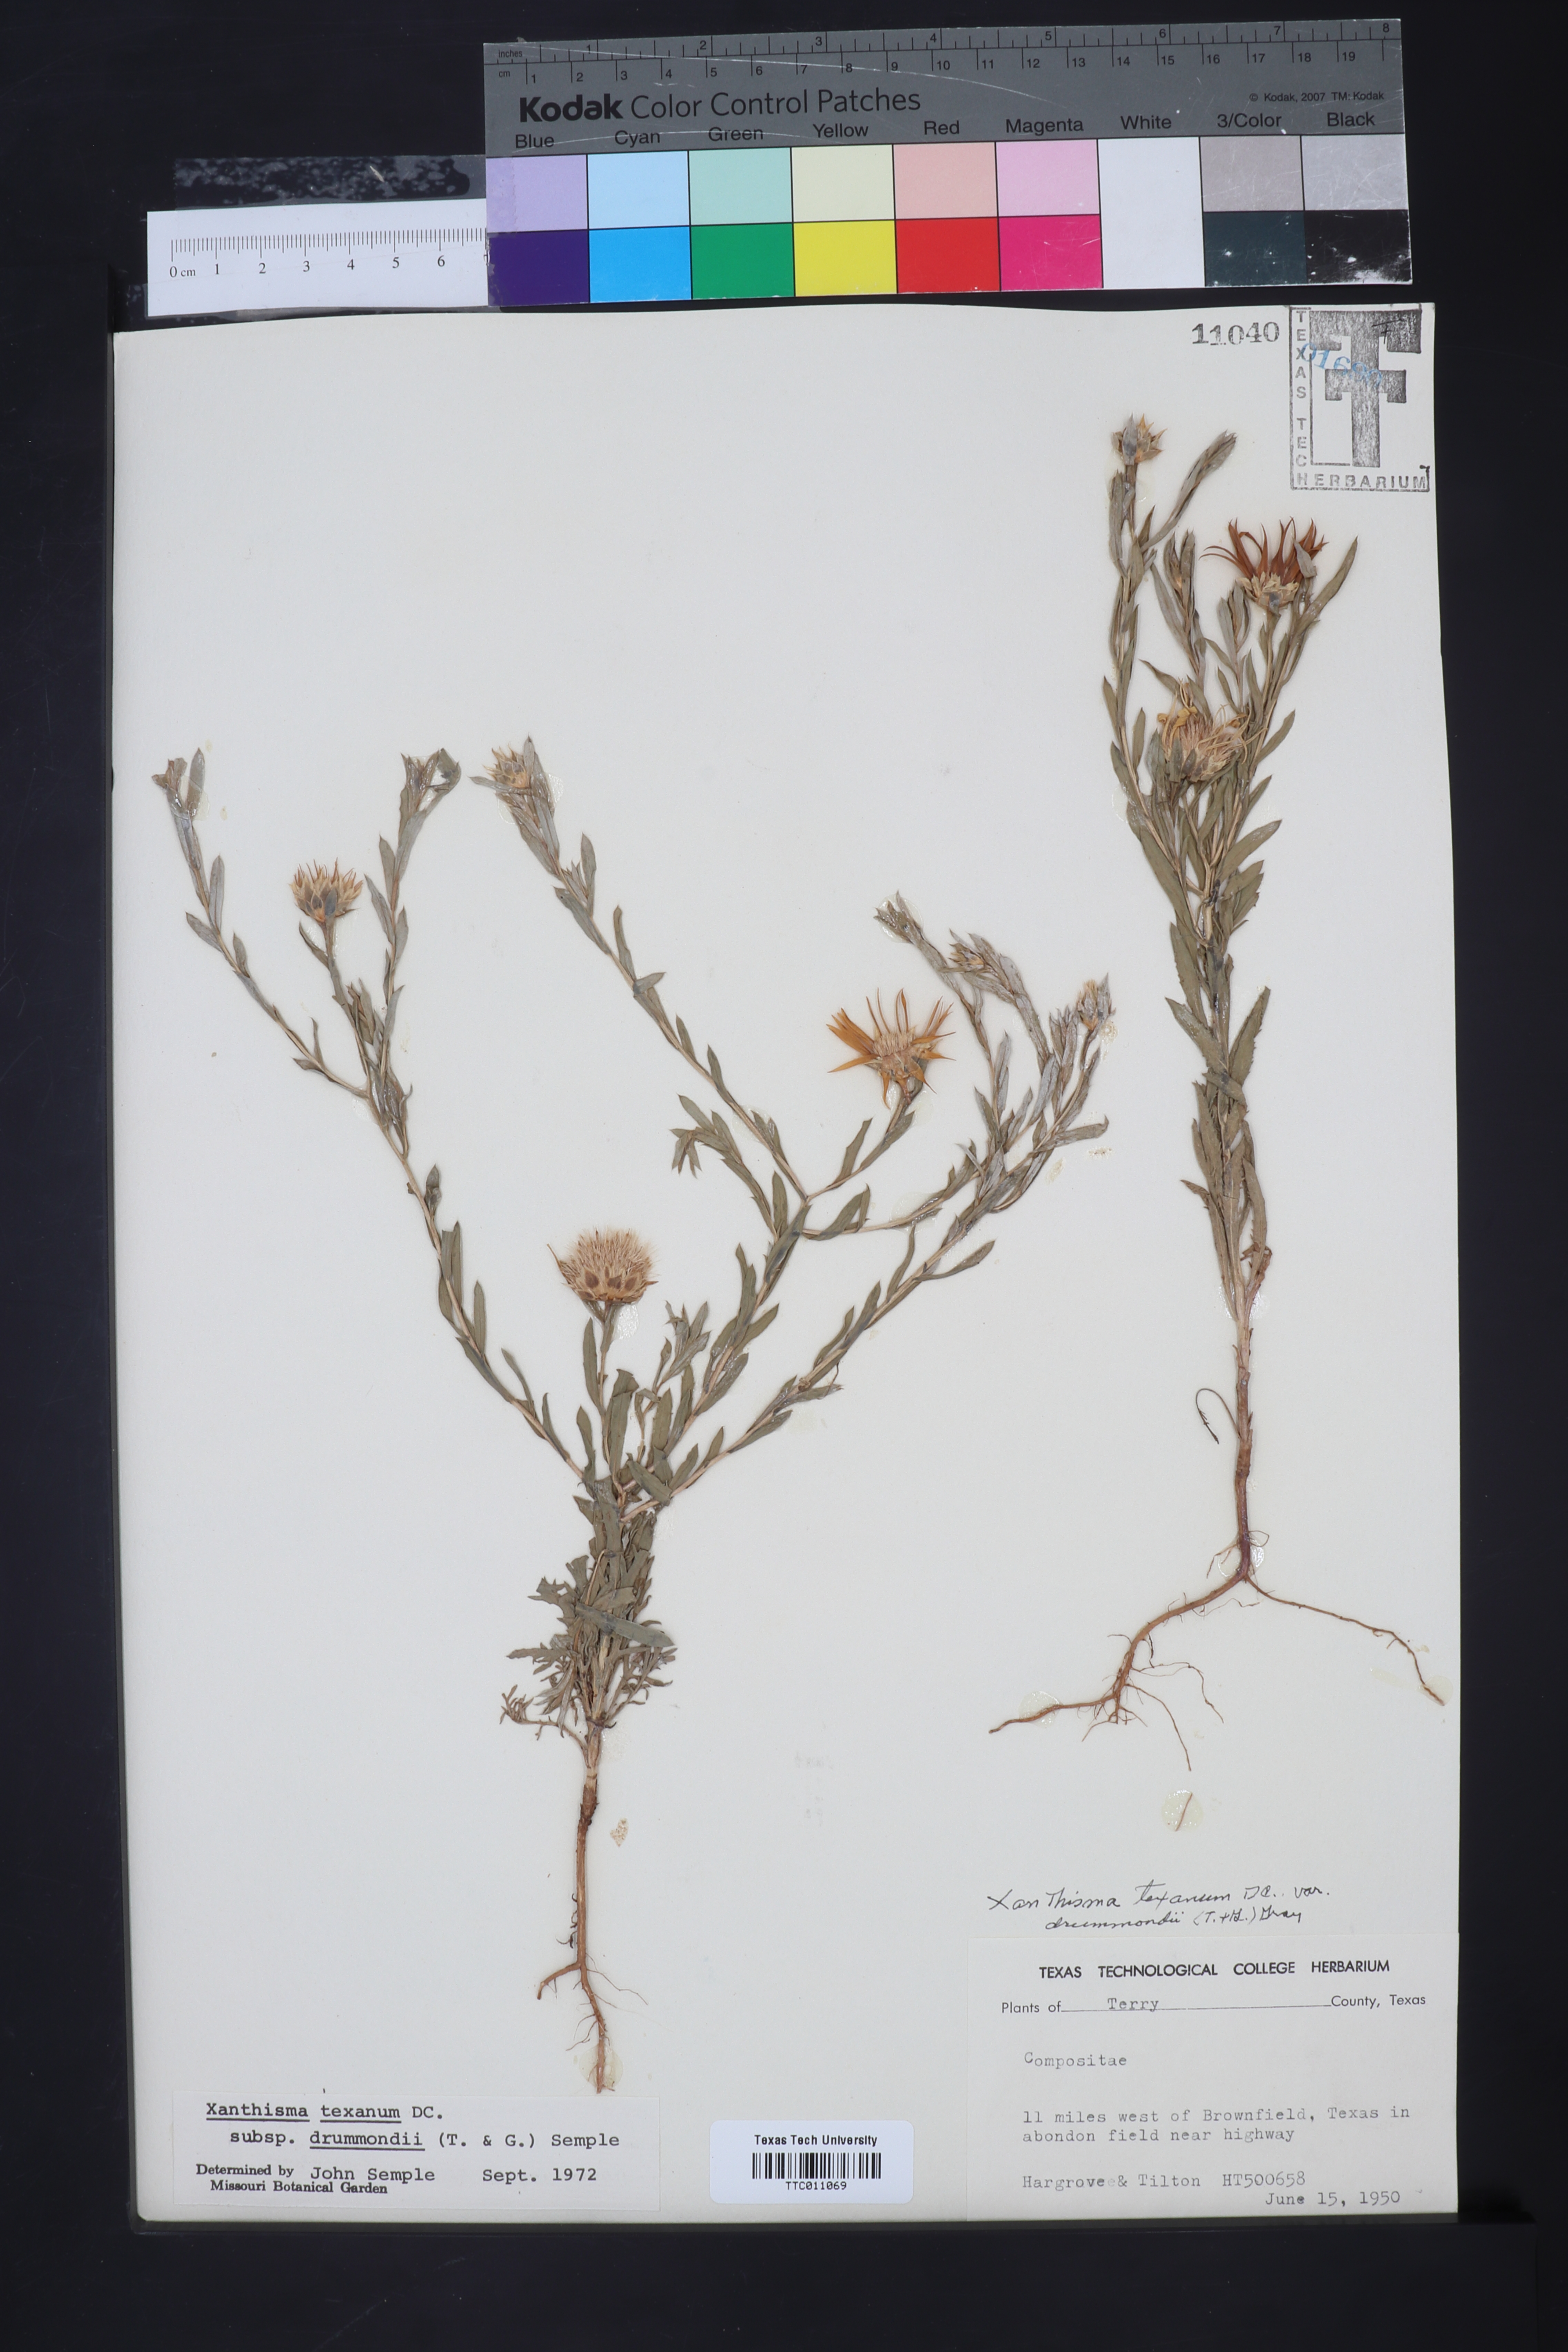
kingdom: Plantae
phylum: Tracheophyta
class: Magnoliopsida
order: Asterales
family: Asteraceae
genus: Xanthisma
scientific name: Xanthisma texanum
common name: Texas sleepy daisy
